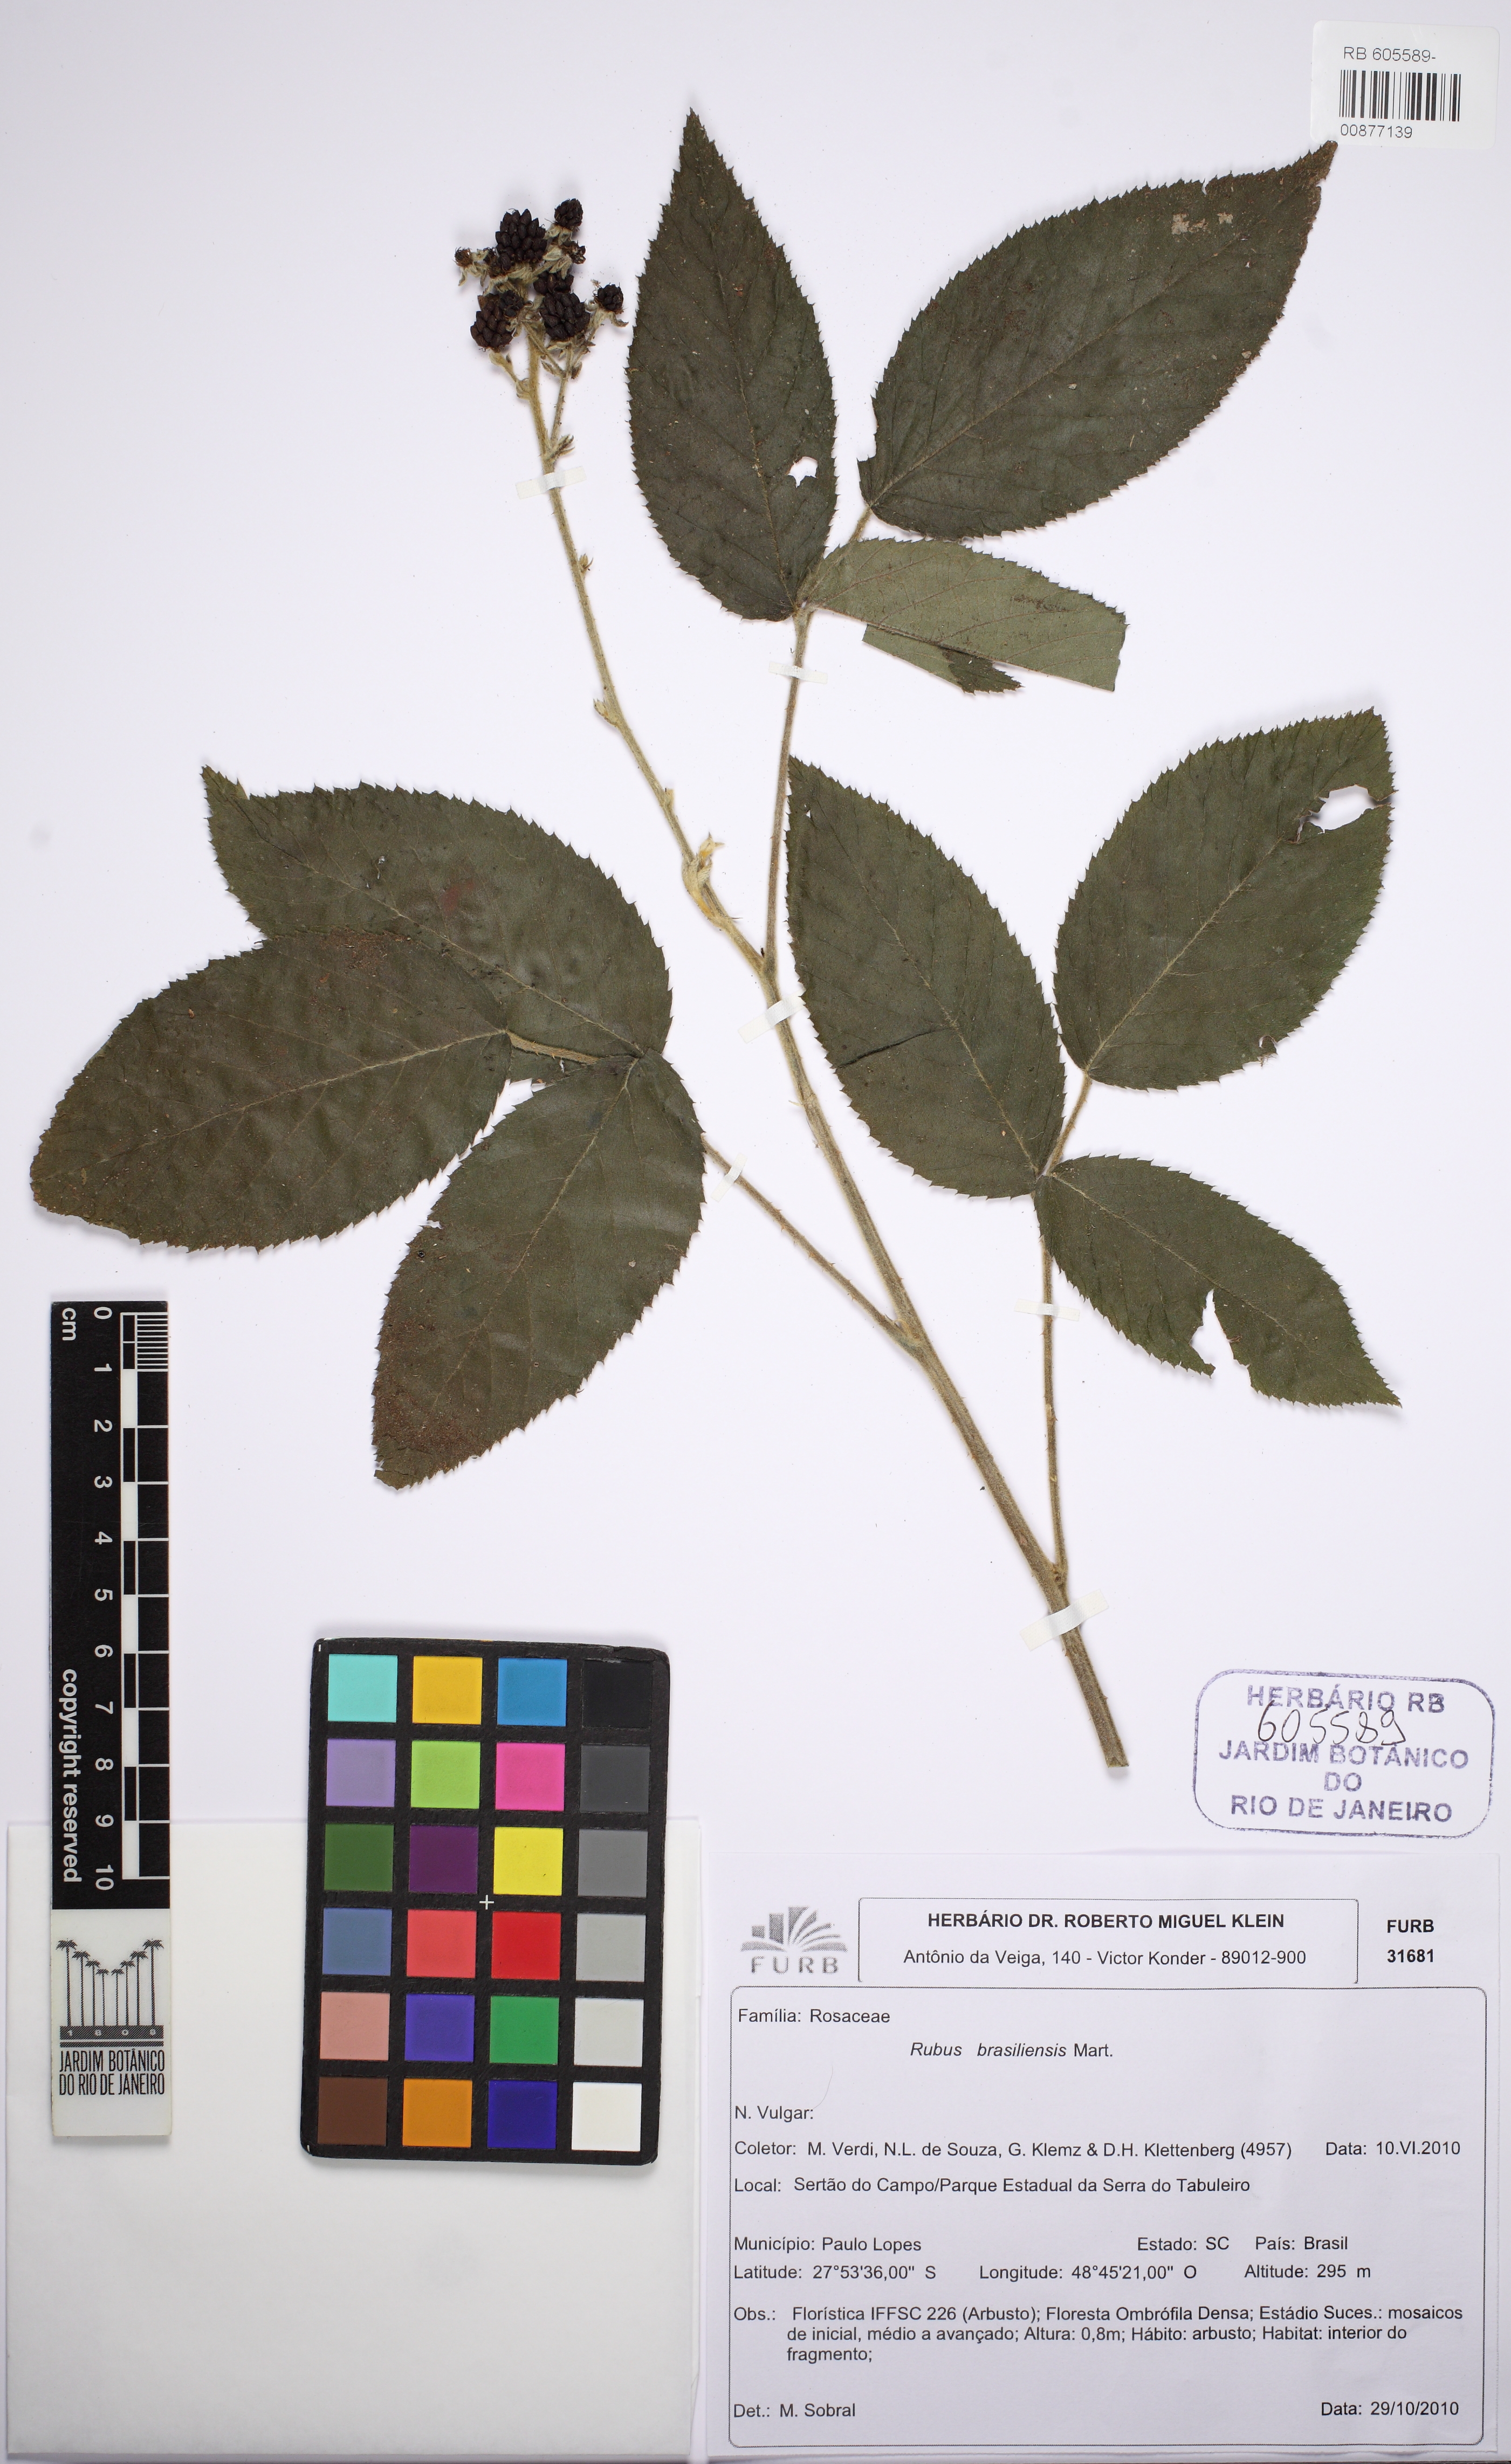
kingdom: Plantae
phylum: Tracheophyta
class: Magnoliopsida
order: Rosales
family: Rosaceae
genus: Rubus
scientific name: Rubus brasiliensis
